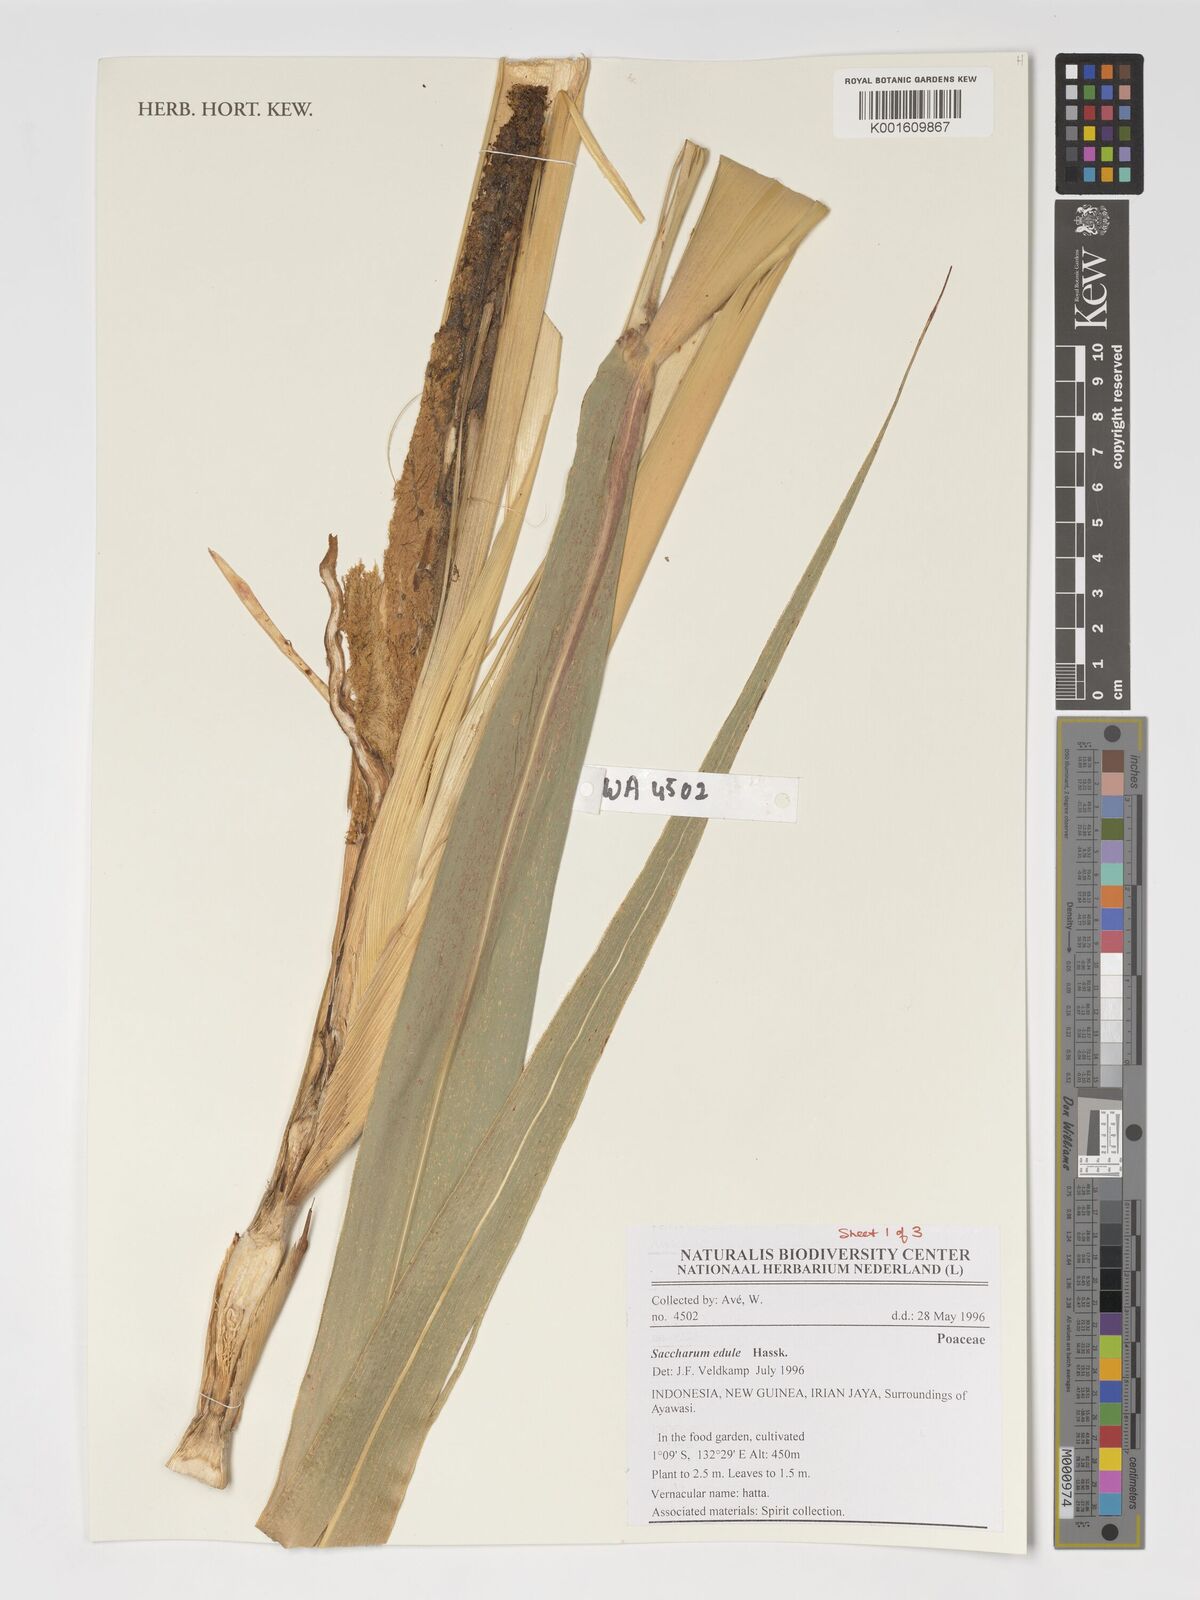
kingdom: Plantae
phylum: Tracheophyta
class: Liliopsida
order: Poales
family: Poaceae
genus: Saccharum
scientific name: Saccharum edule
